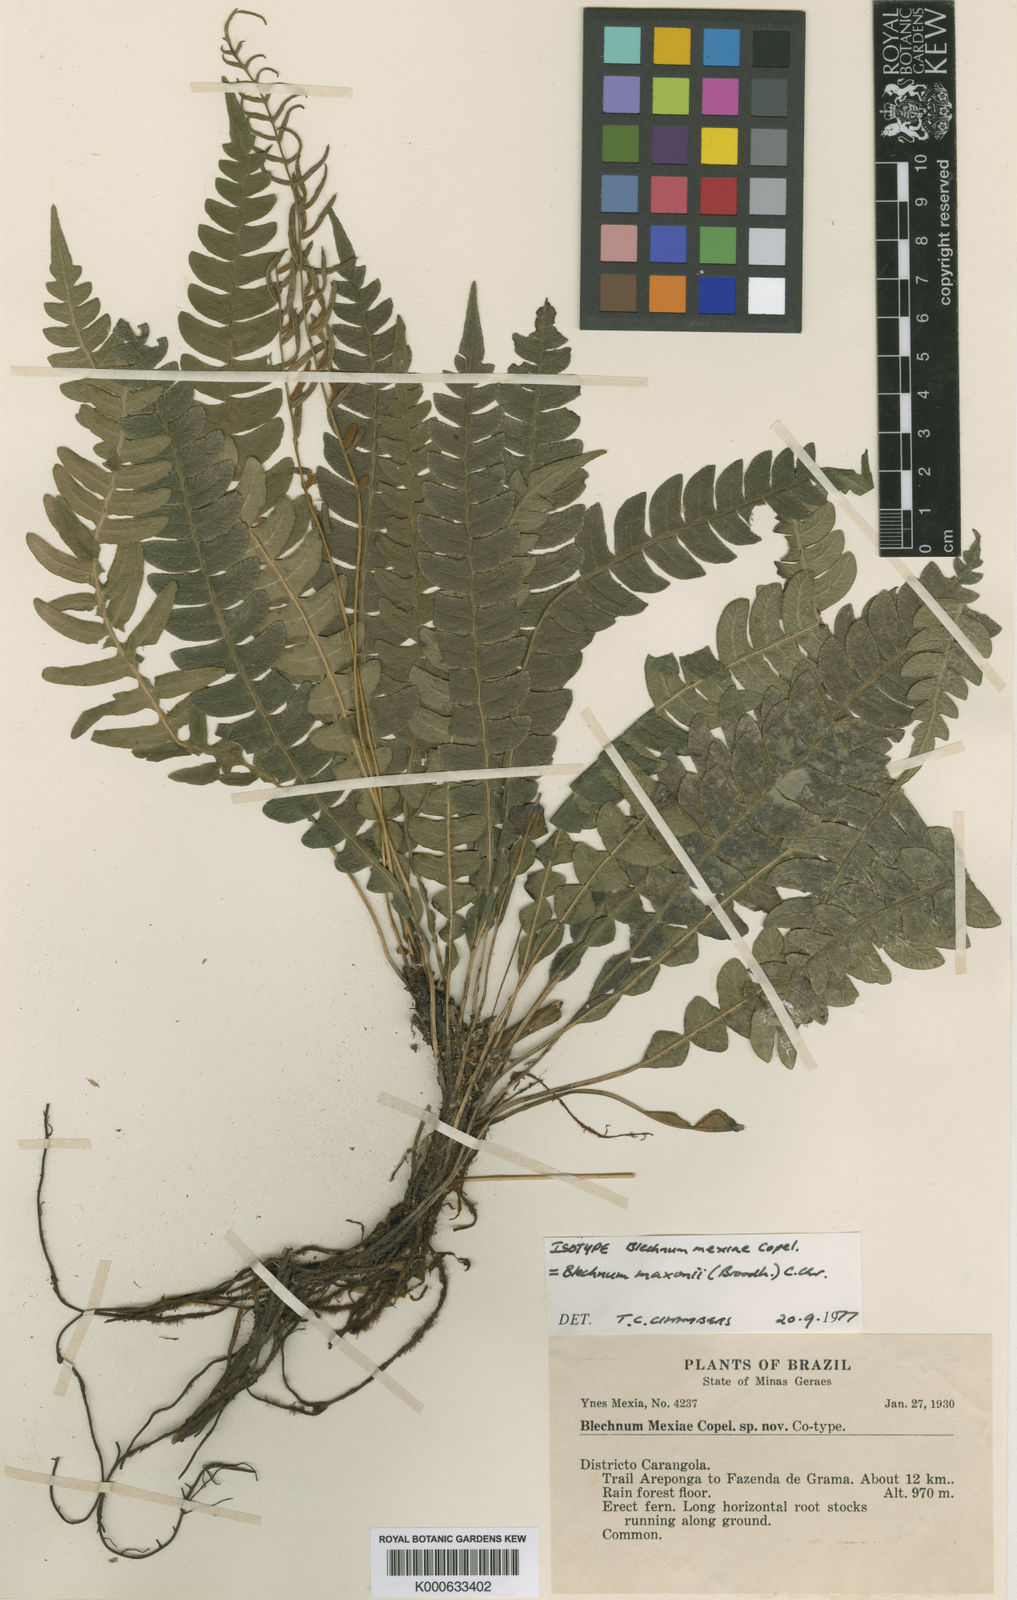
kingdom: Plantae
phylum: Tracheophyta
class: Polypodiopsida
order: Polypodiales
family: Blechnaceae
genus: Austroblechnum
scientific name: Austroblechnum lehmannii
